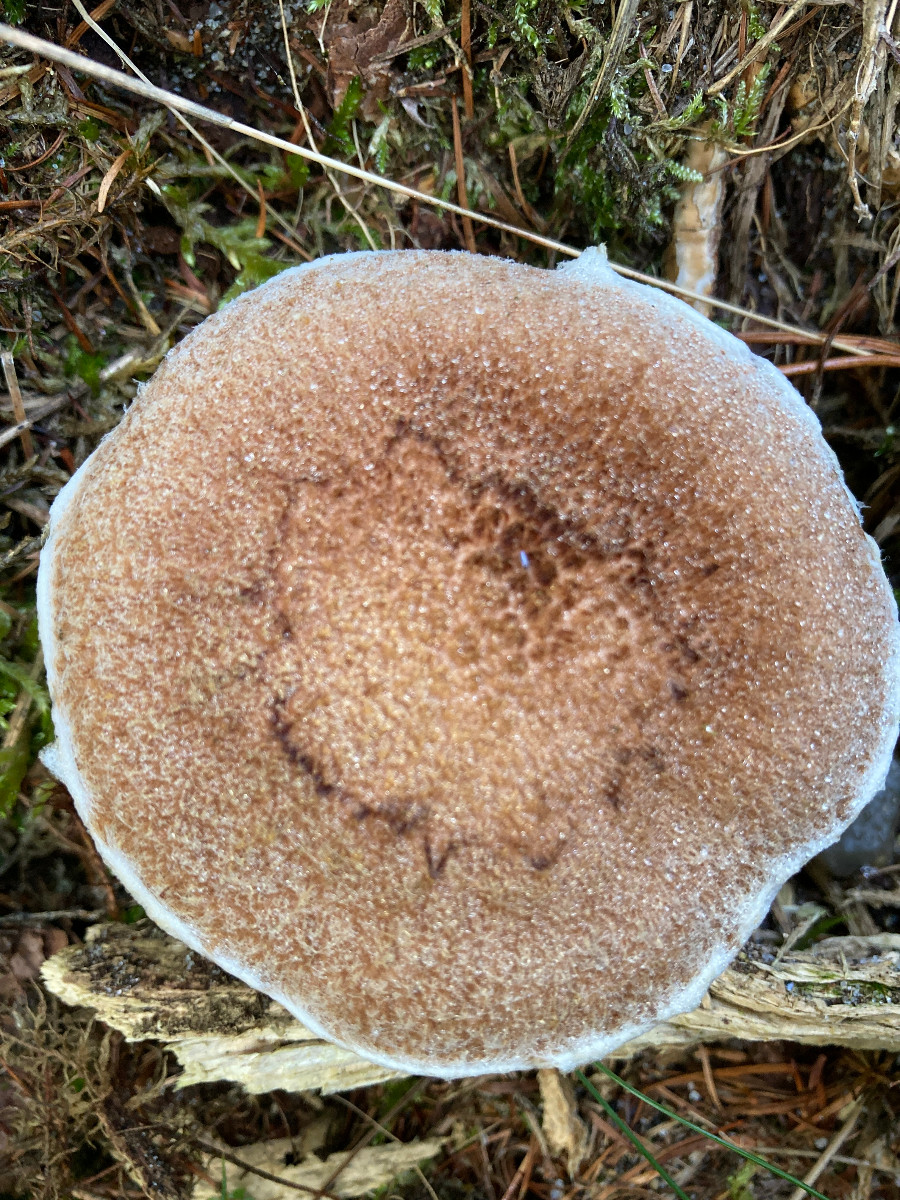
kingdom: Fungi
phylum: Basidiomycota
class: Agaricomycetes
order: Boletales
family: Suillaceae
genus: Suillus
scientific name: Suillus cavipes
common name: hulstokket slimrørhat
